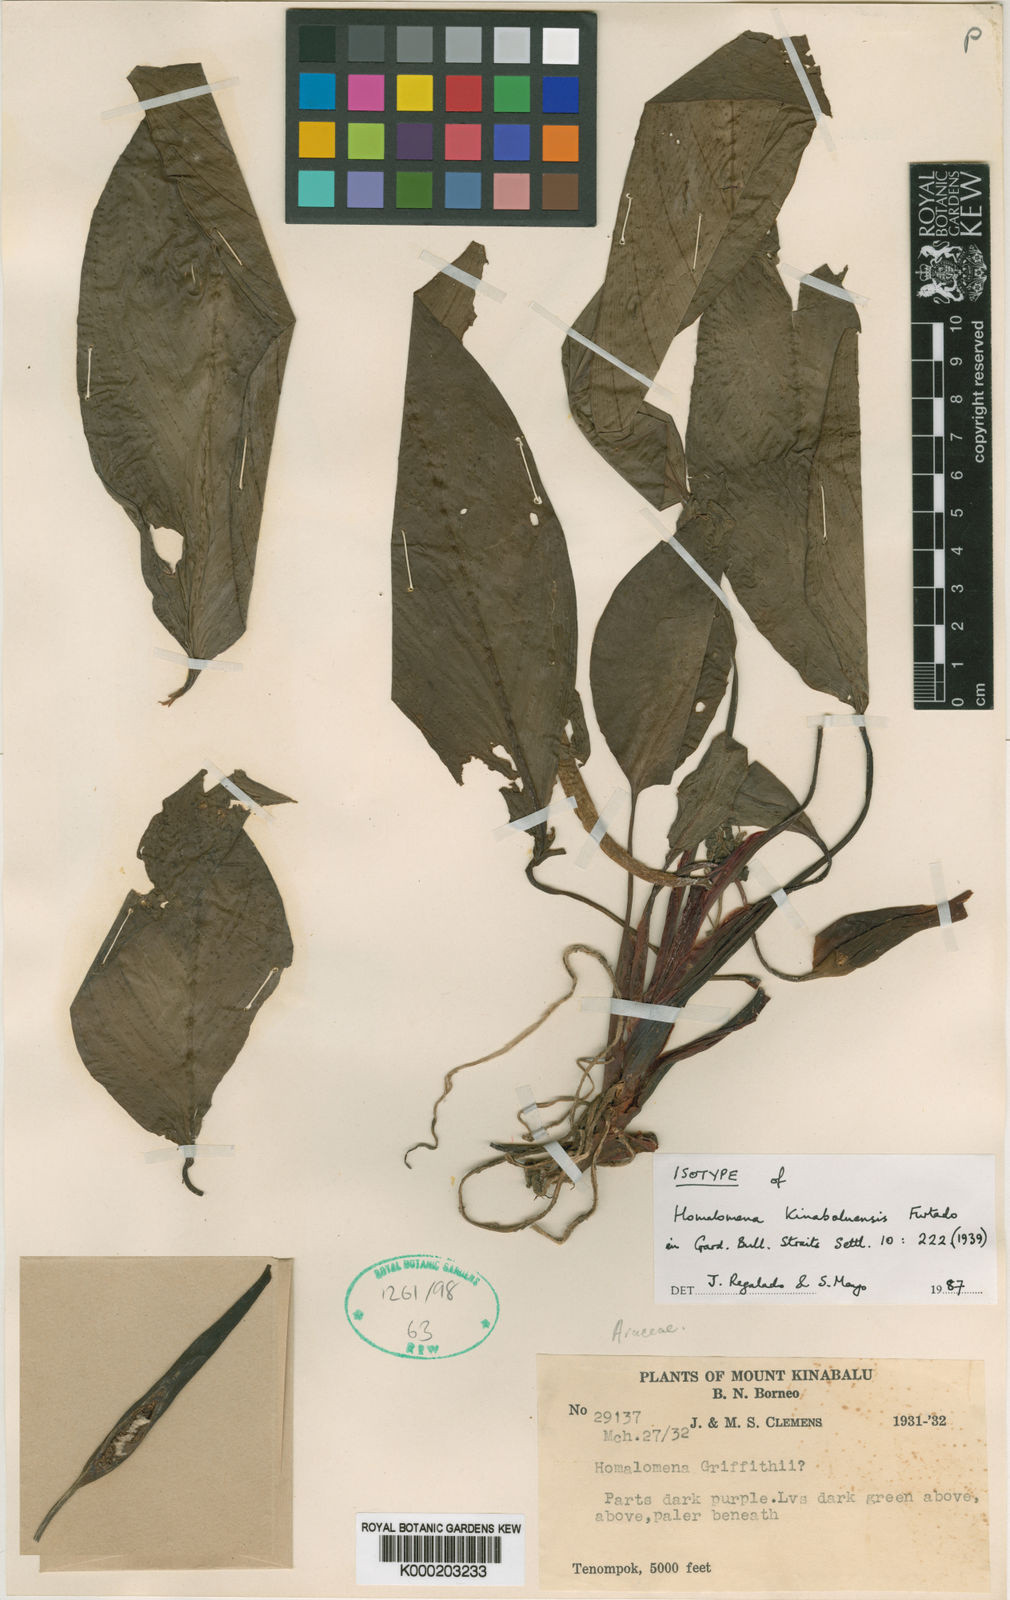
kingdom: Plantae
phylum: Tracheophyta
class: Liliopsida
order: Alismatales
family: Araceae
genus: Homalomena
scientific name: Homalomena gillii
